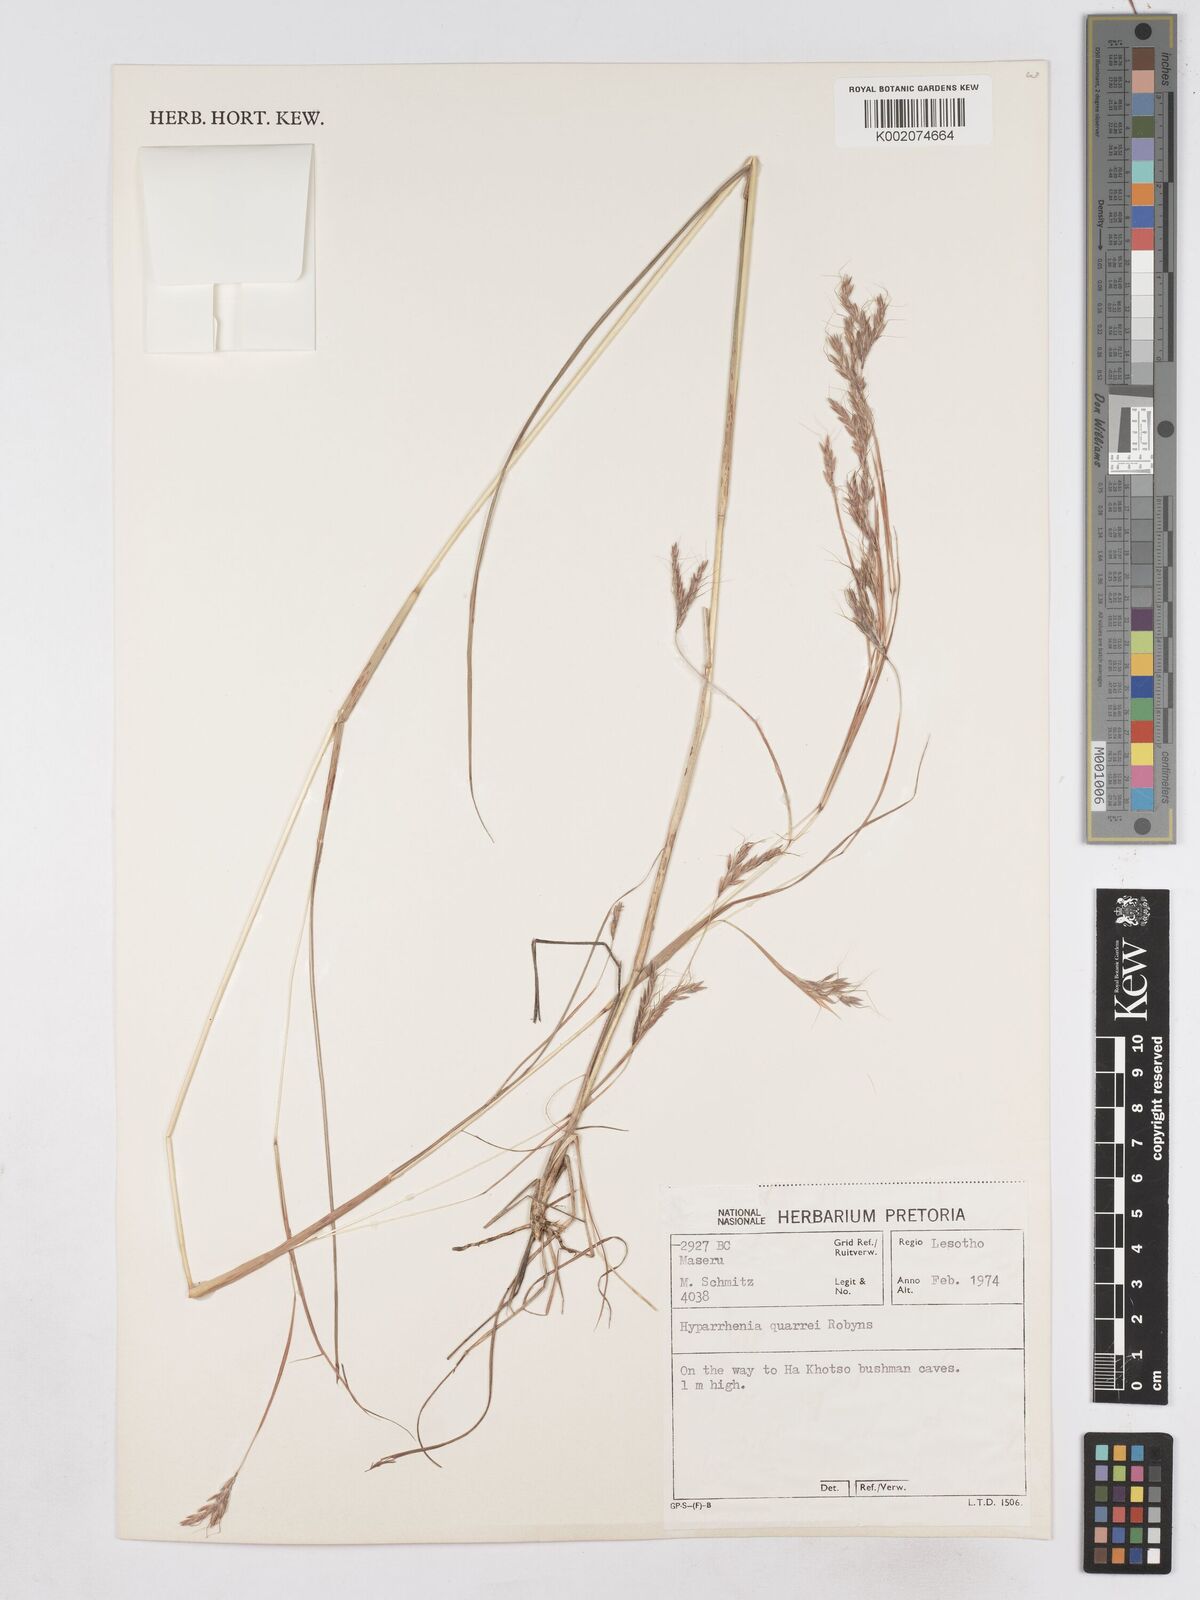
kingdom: Plantae
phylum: Tracheophyta
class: Liliopsida
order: Poales
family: Poaceae
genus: Hyparrhenia
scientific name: Hyparrhenia quarrei
